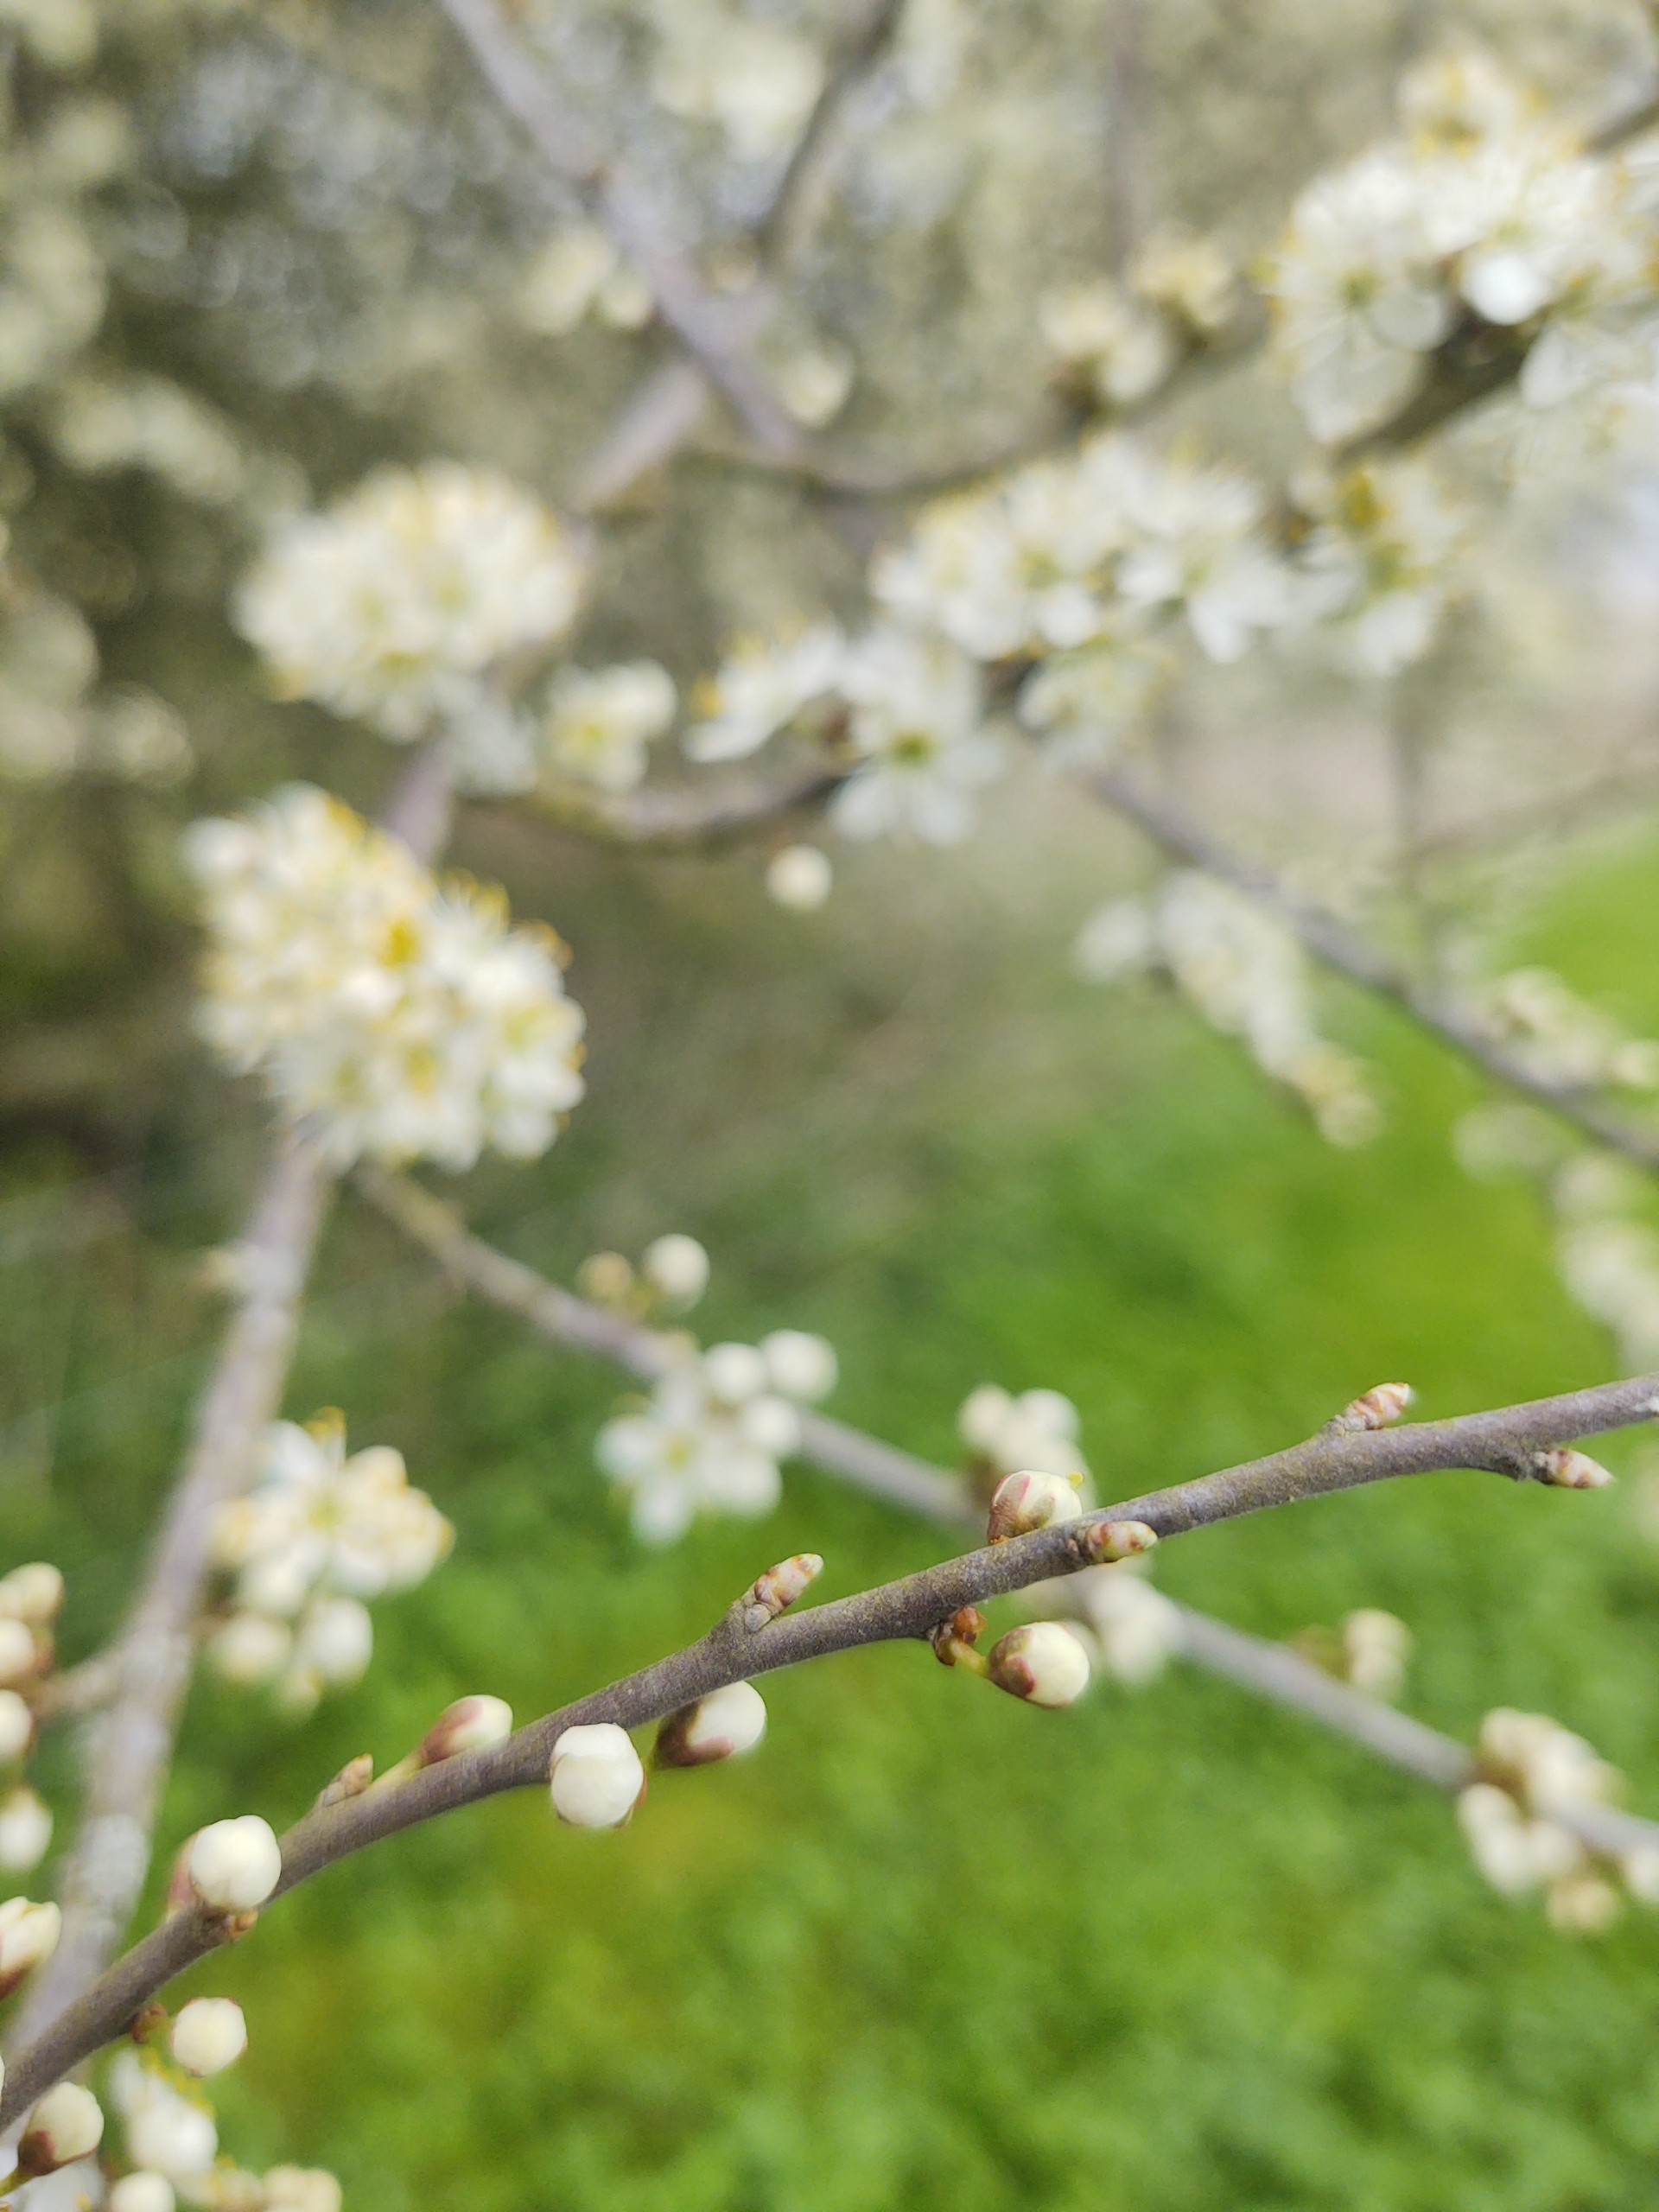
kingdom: Plantae
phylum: Tracheophyta
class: Magnoliopsida
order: Rosales
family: Rosaceae
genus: Prunus
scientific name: Prunus spinosa
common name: Slåen
